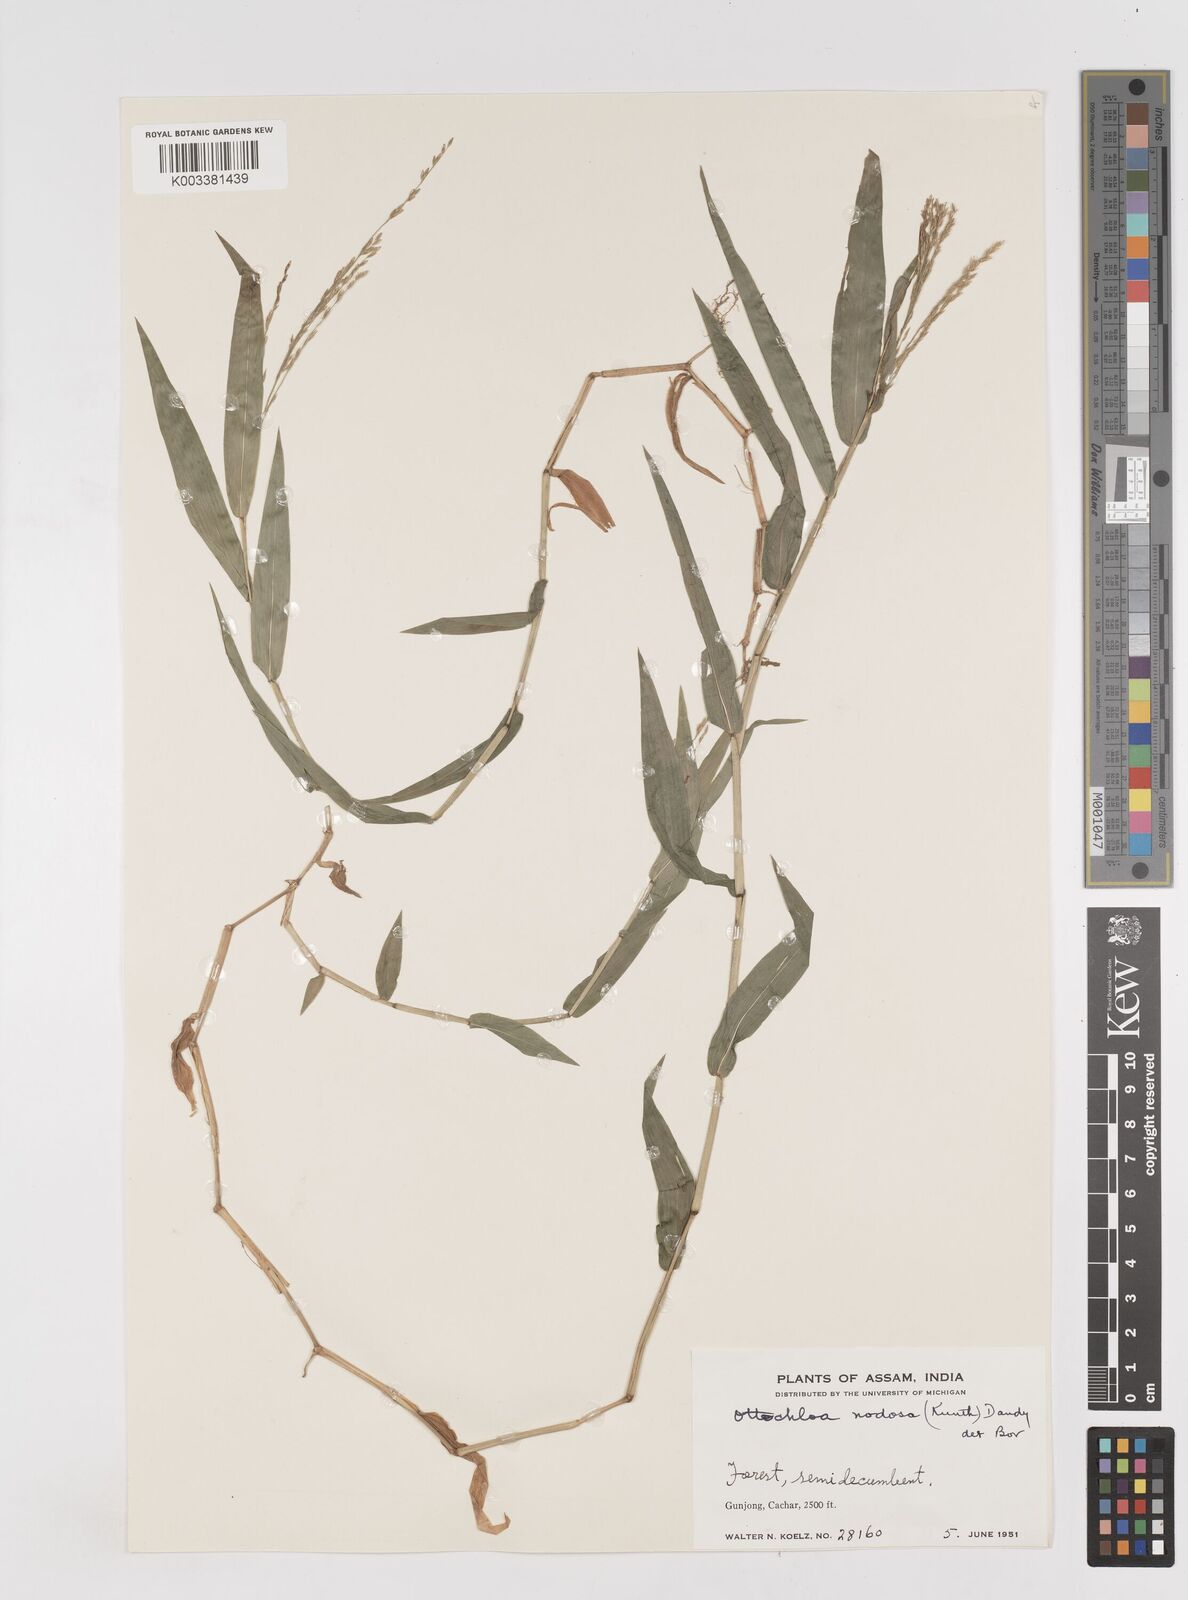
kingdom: Plantae
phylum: Tracheophyta
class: Liliopsida
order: Poales
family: Poaceae
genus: Ottochloa
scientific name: Ottochloa nodosa
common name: Slender-panic grass
